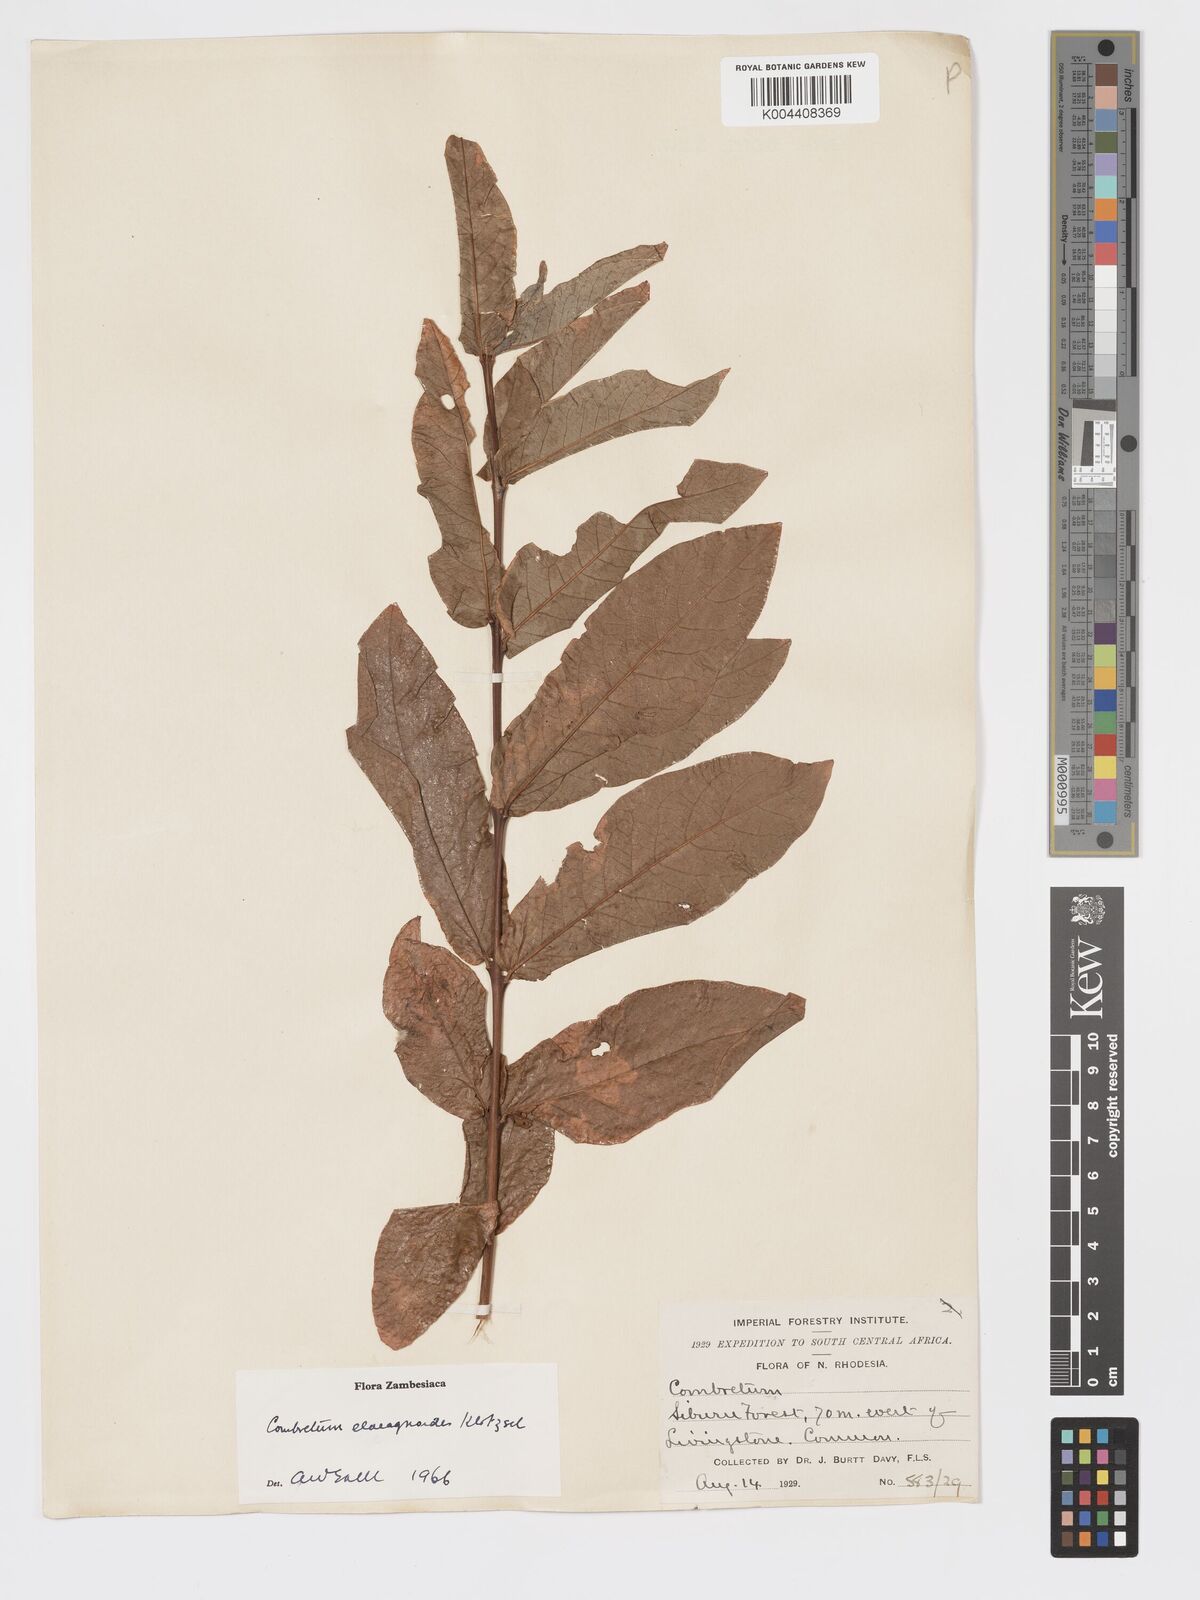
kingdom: Plantae
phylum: Tracheophyta
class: Magnoliopsida
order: Myrtales
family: Combretaceae
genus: Combretum
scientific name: Combretum elaeagnoides
